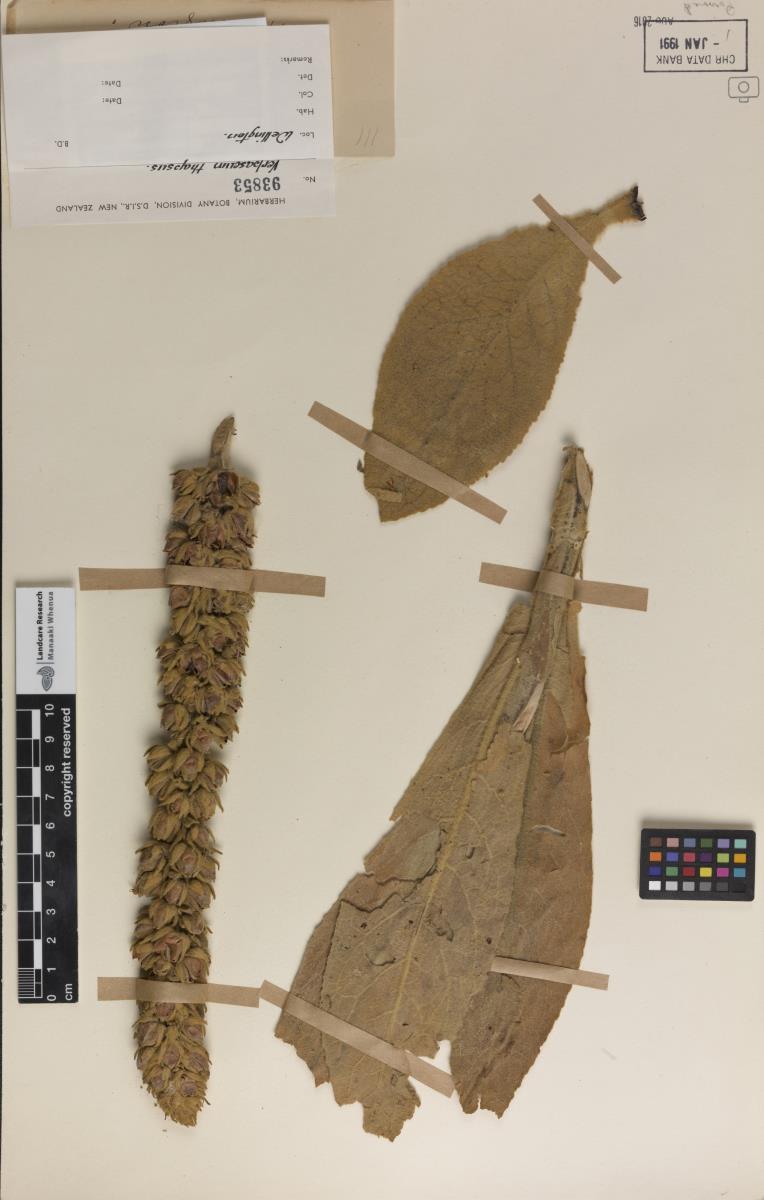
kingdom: Plantae
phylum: Tracheophyta
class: Magnoliopsida
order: Lamiales
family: Scrophulariaceae
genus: Verbascum
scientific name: Verbascum thapsus
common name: Common mullein
